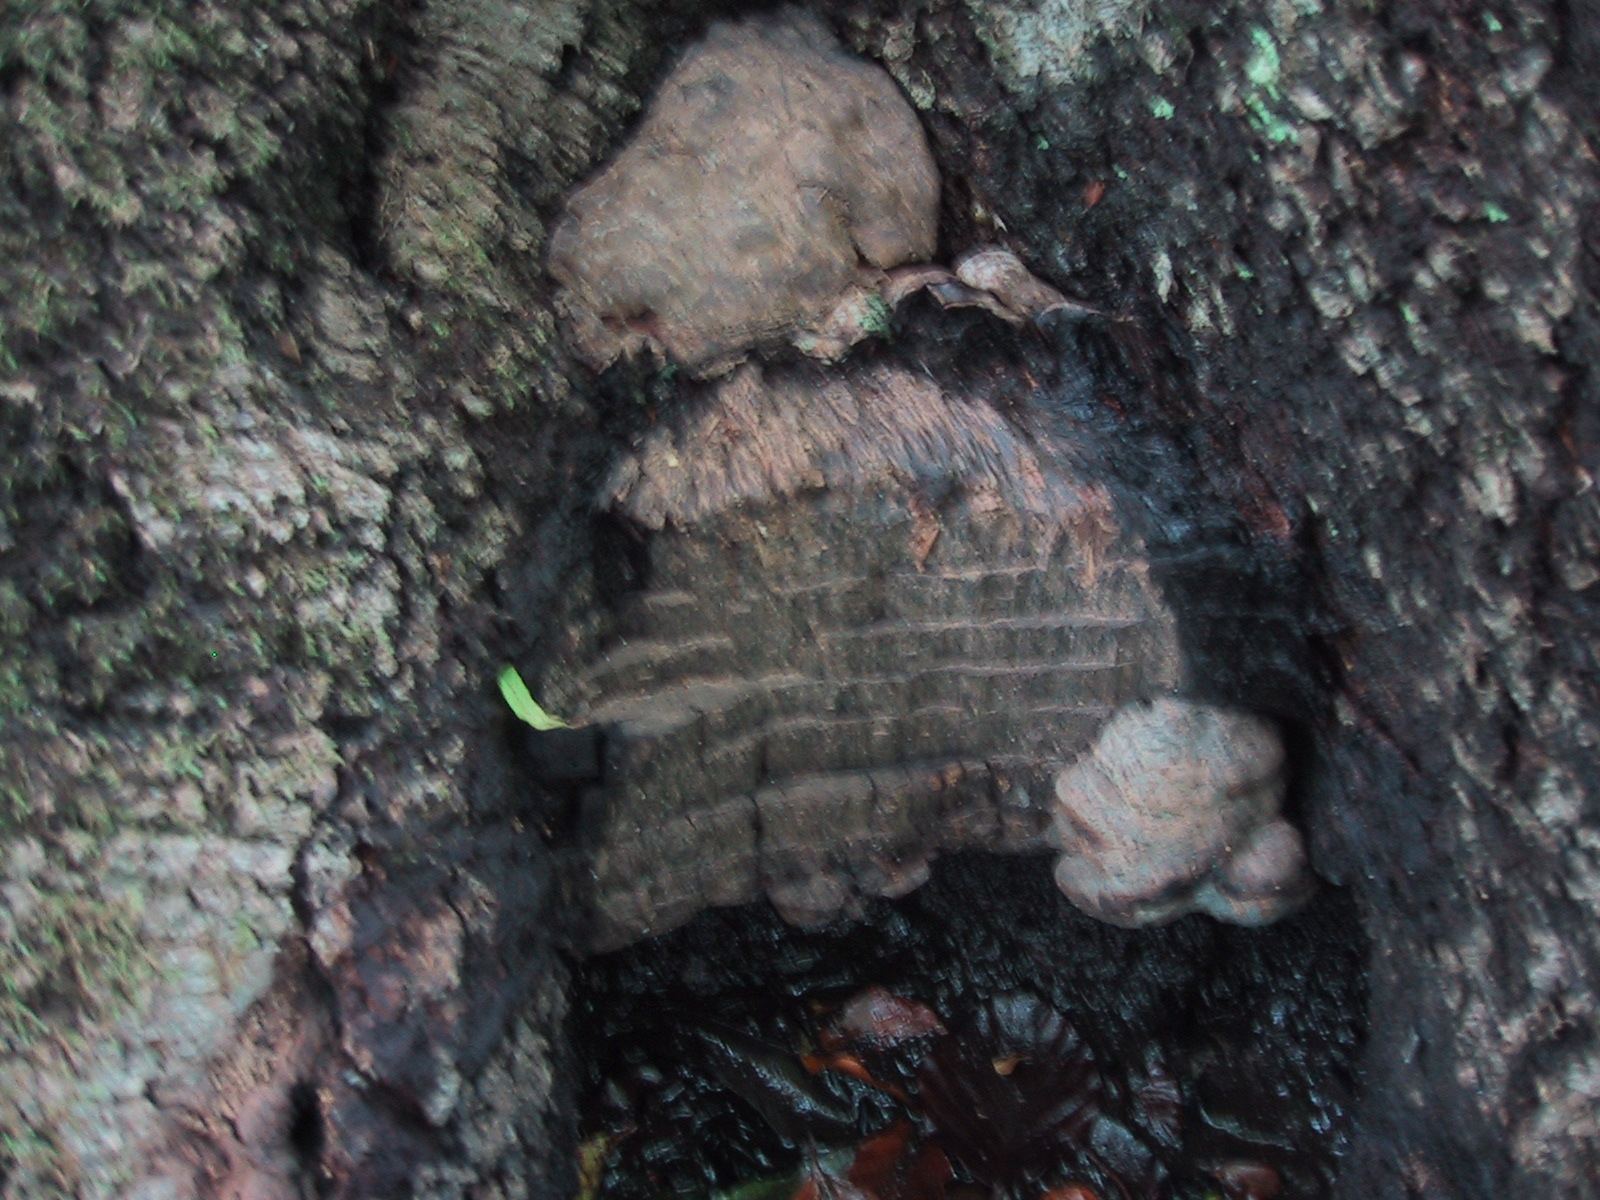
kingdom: Fungi
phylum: Basidiomycota
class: Agaricomycetes
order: Polyporales
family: Polyporaceae
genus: Ganoderma
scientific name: Ganoderma pfeifferi
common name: kobberrød lakporesvamp
